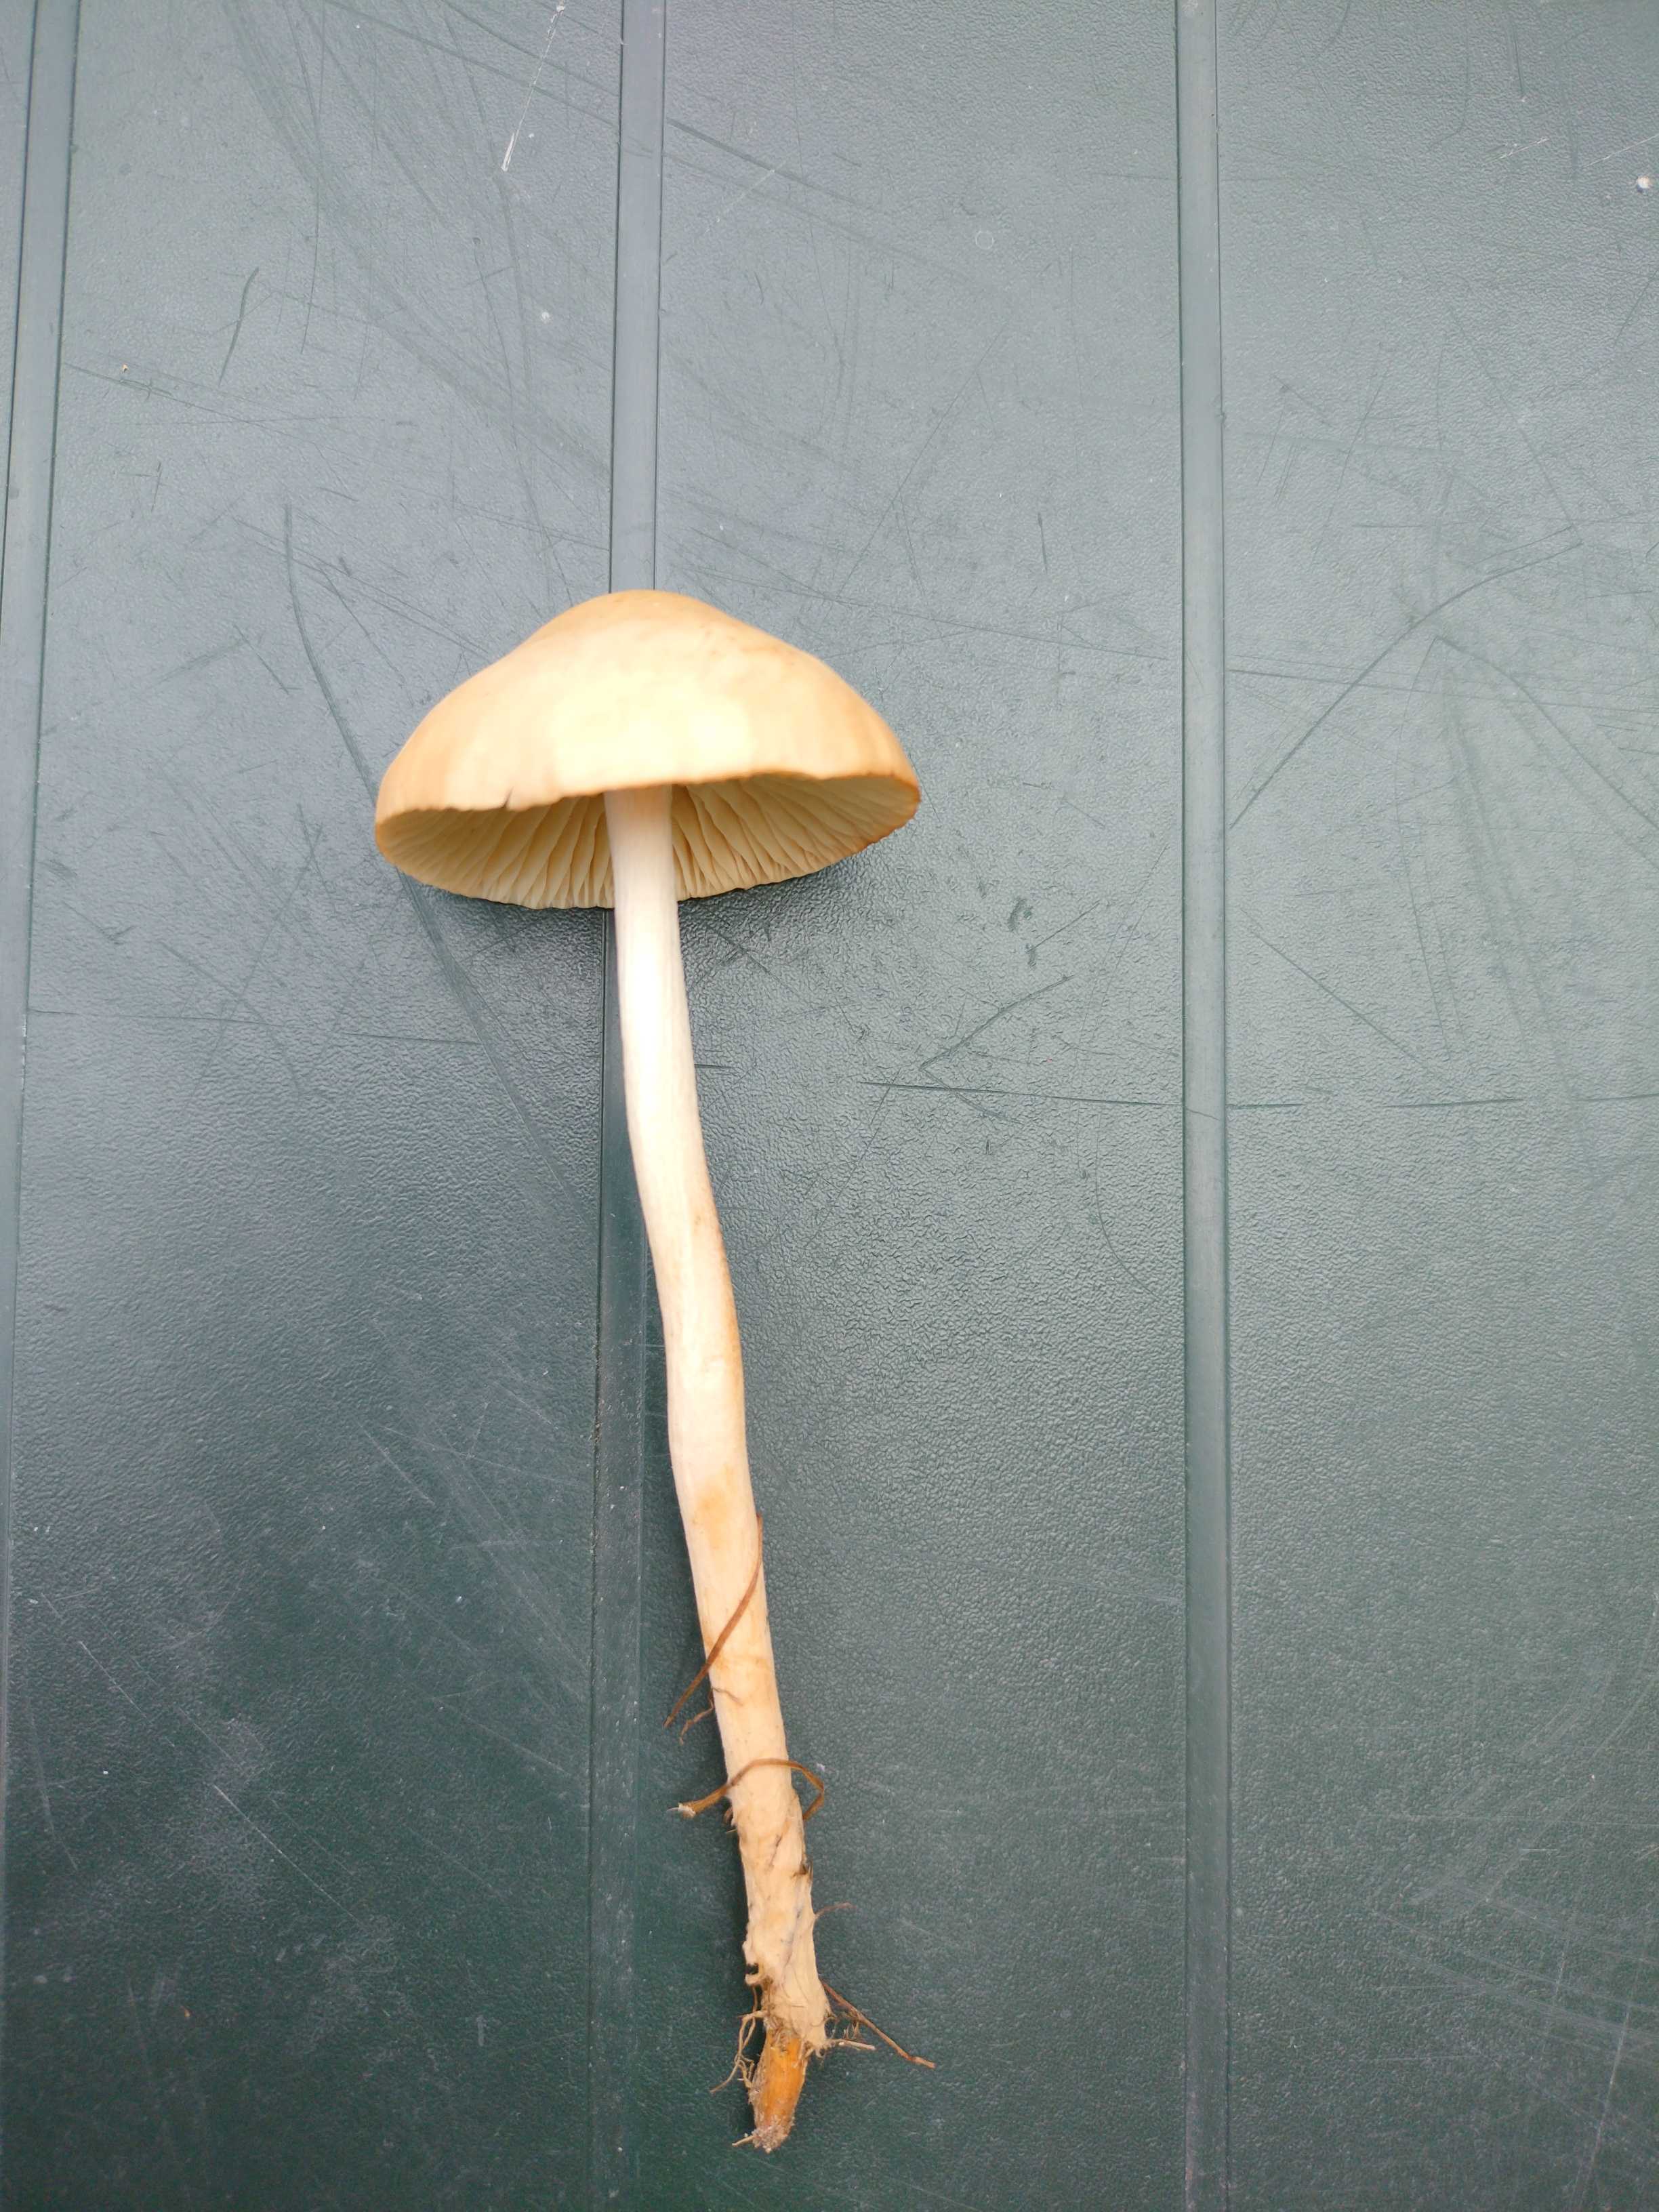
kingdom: Fungi
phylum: Basidiomycota
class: Agaricomycetes
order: Agaricales
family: Marasmiaceae
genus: Marasmius
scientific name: Marasmius oreades
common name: elledans-bruskhat
